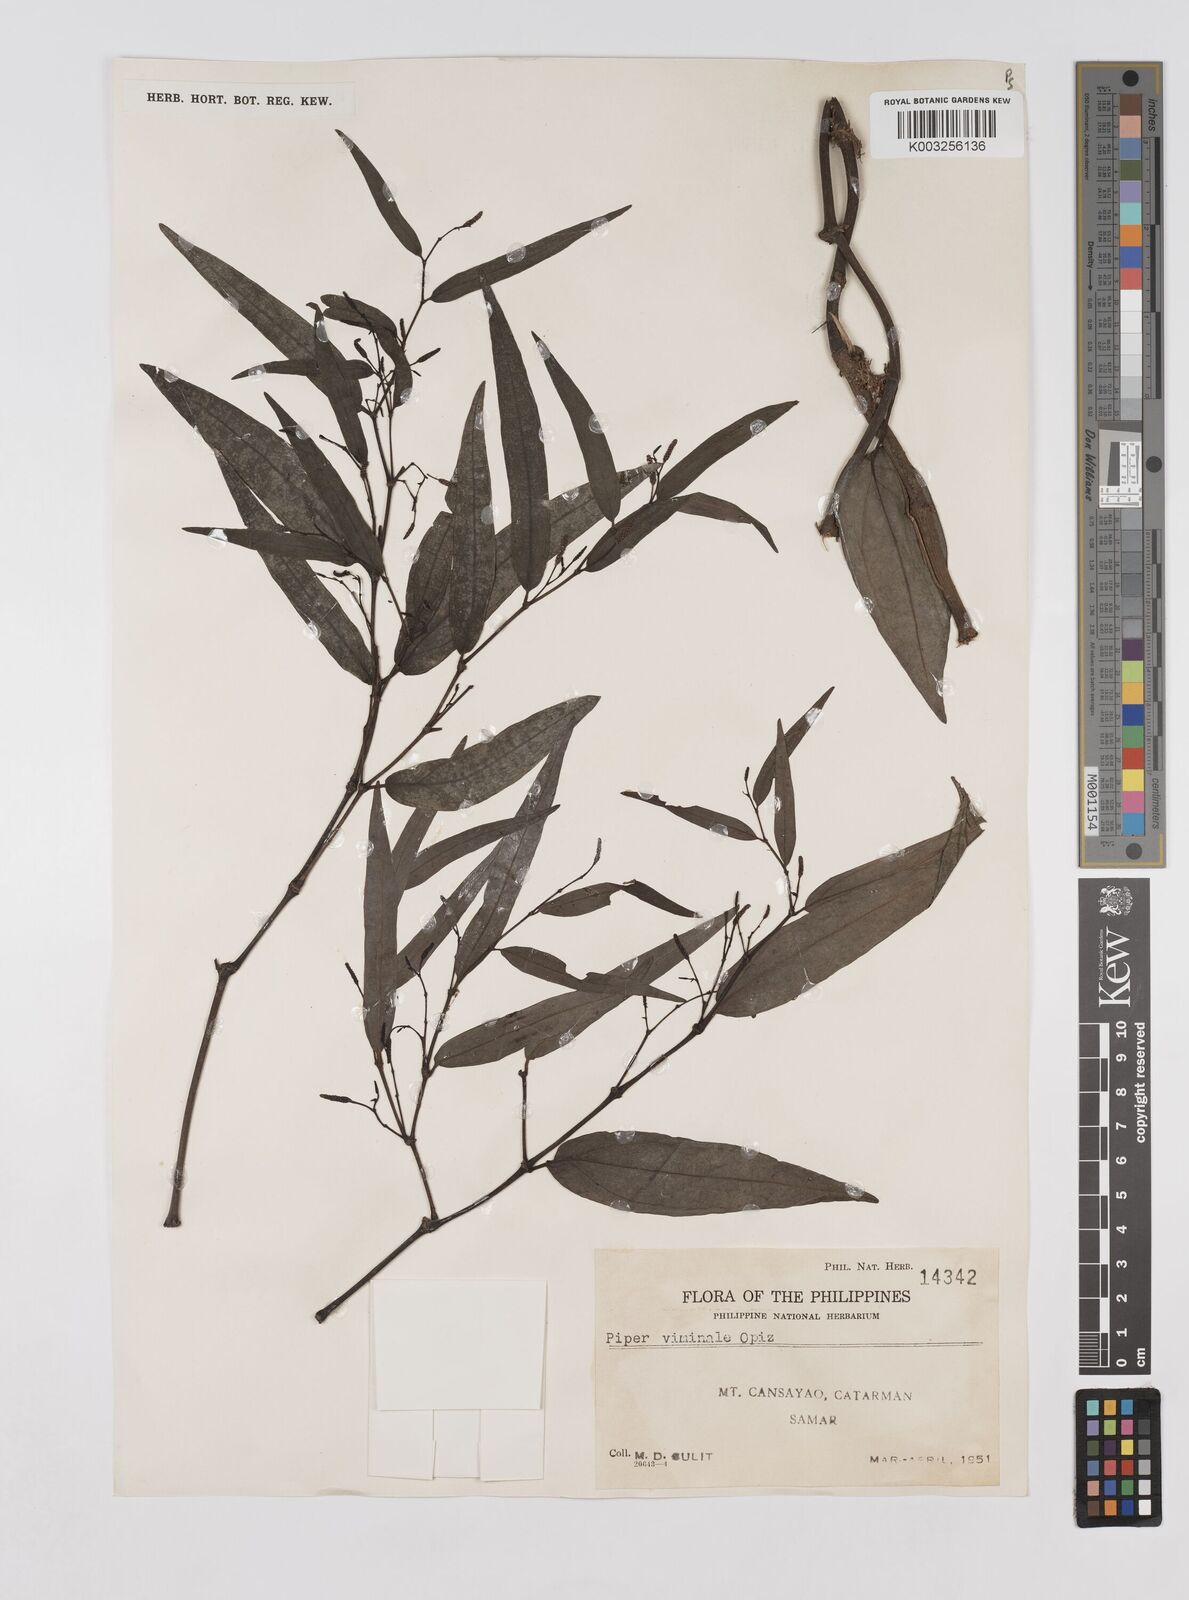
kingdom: Plantae
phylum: Tracheophyta
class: Magnoliopsida
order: Piperales
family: Piperaceae
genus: Piper
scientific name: Piper lanatum
